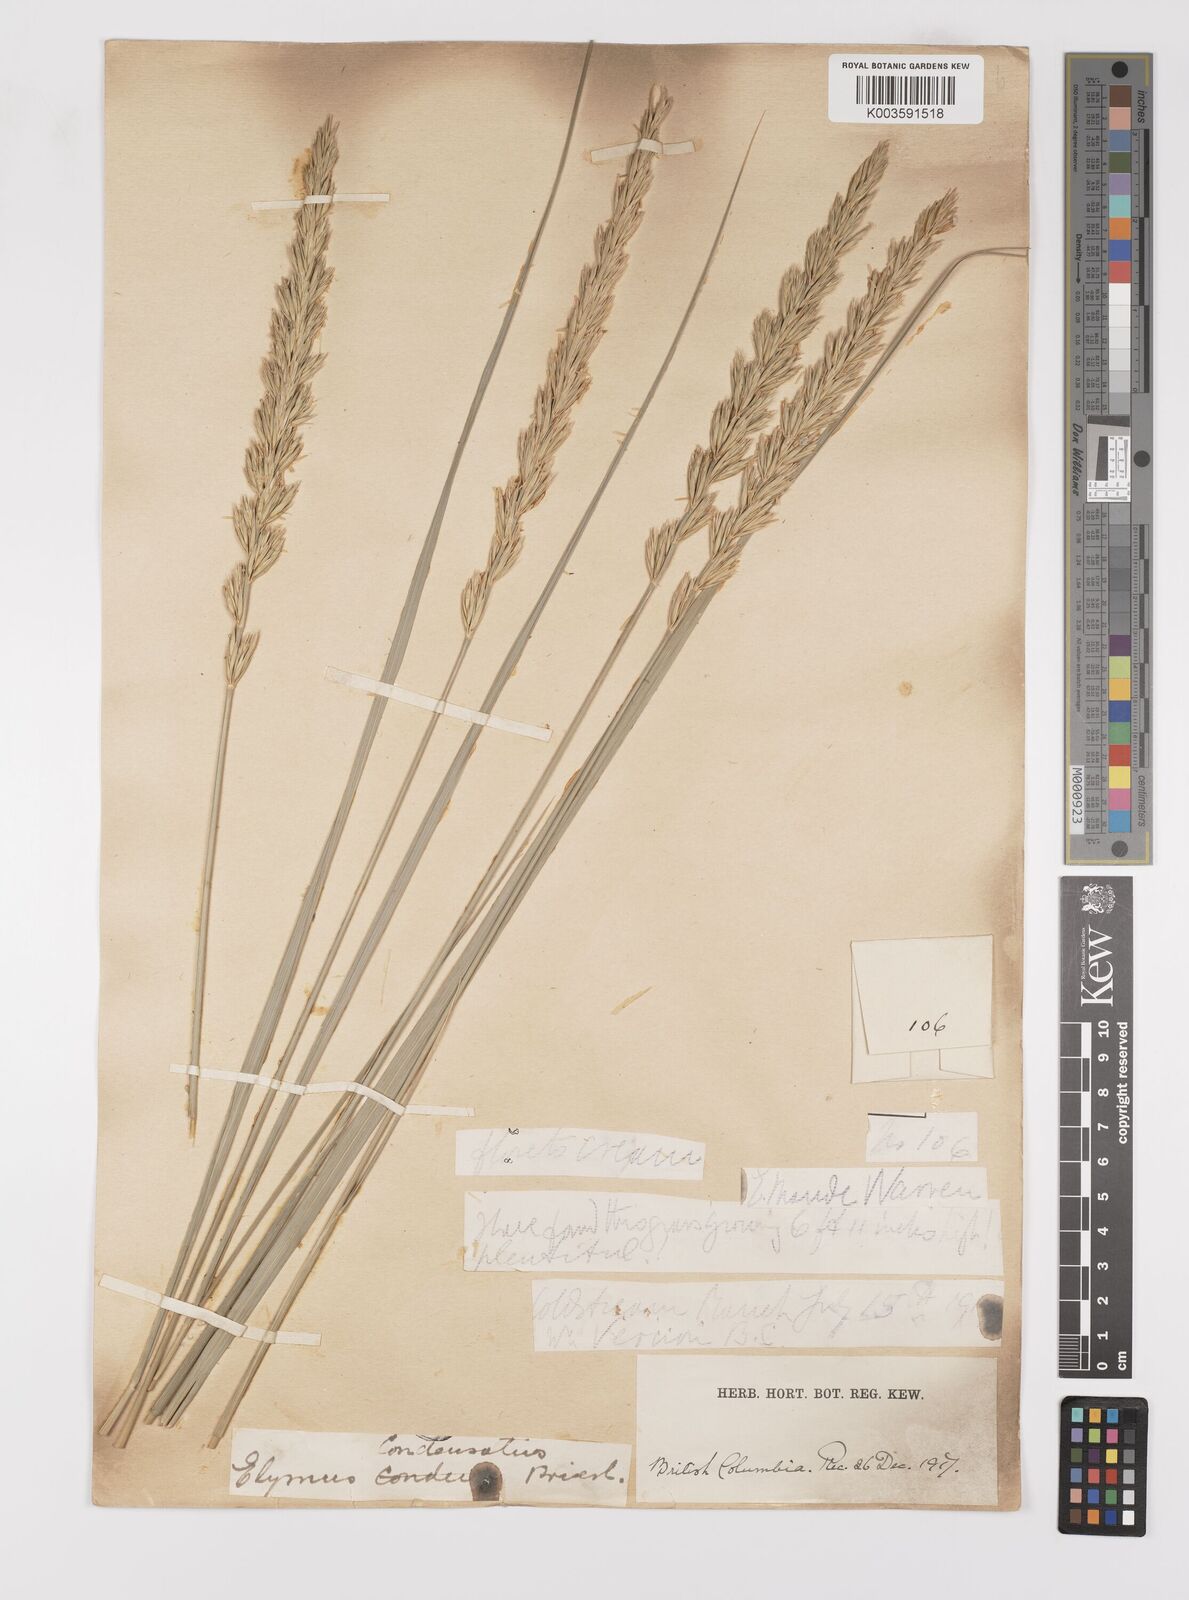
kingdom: Plantae
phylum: Tracheophyta
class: Liliopsida
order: Poales
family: Poaceae
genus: Leymus
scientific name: Leymus condensatus
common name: Giant wild rye
